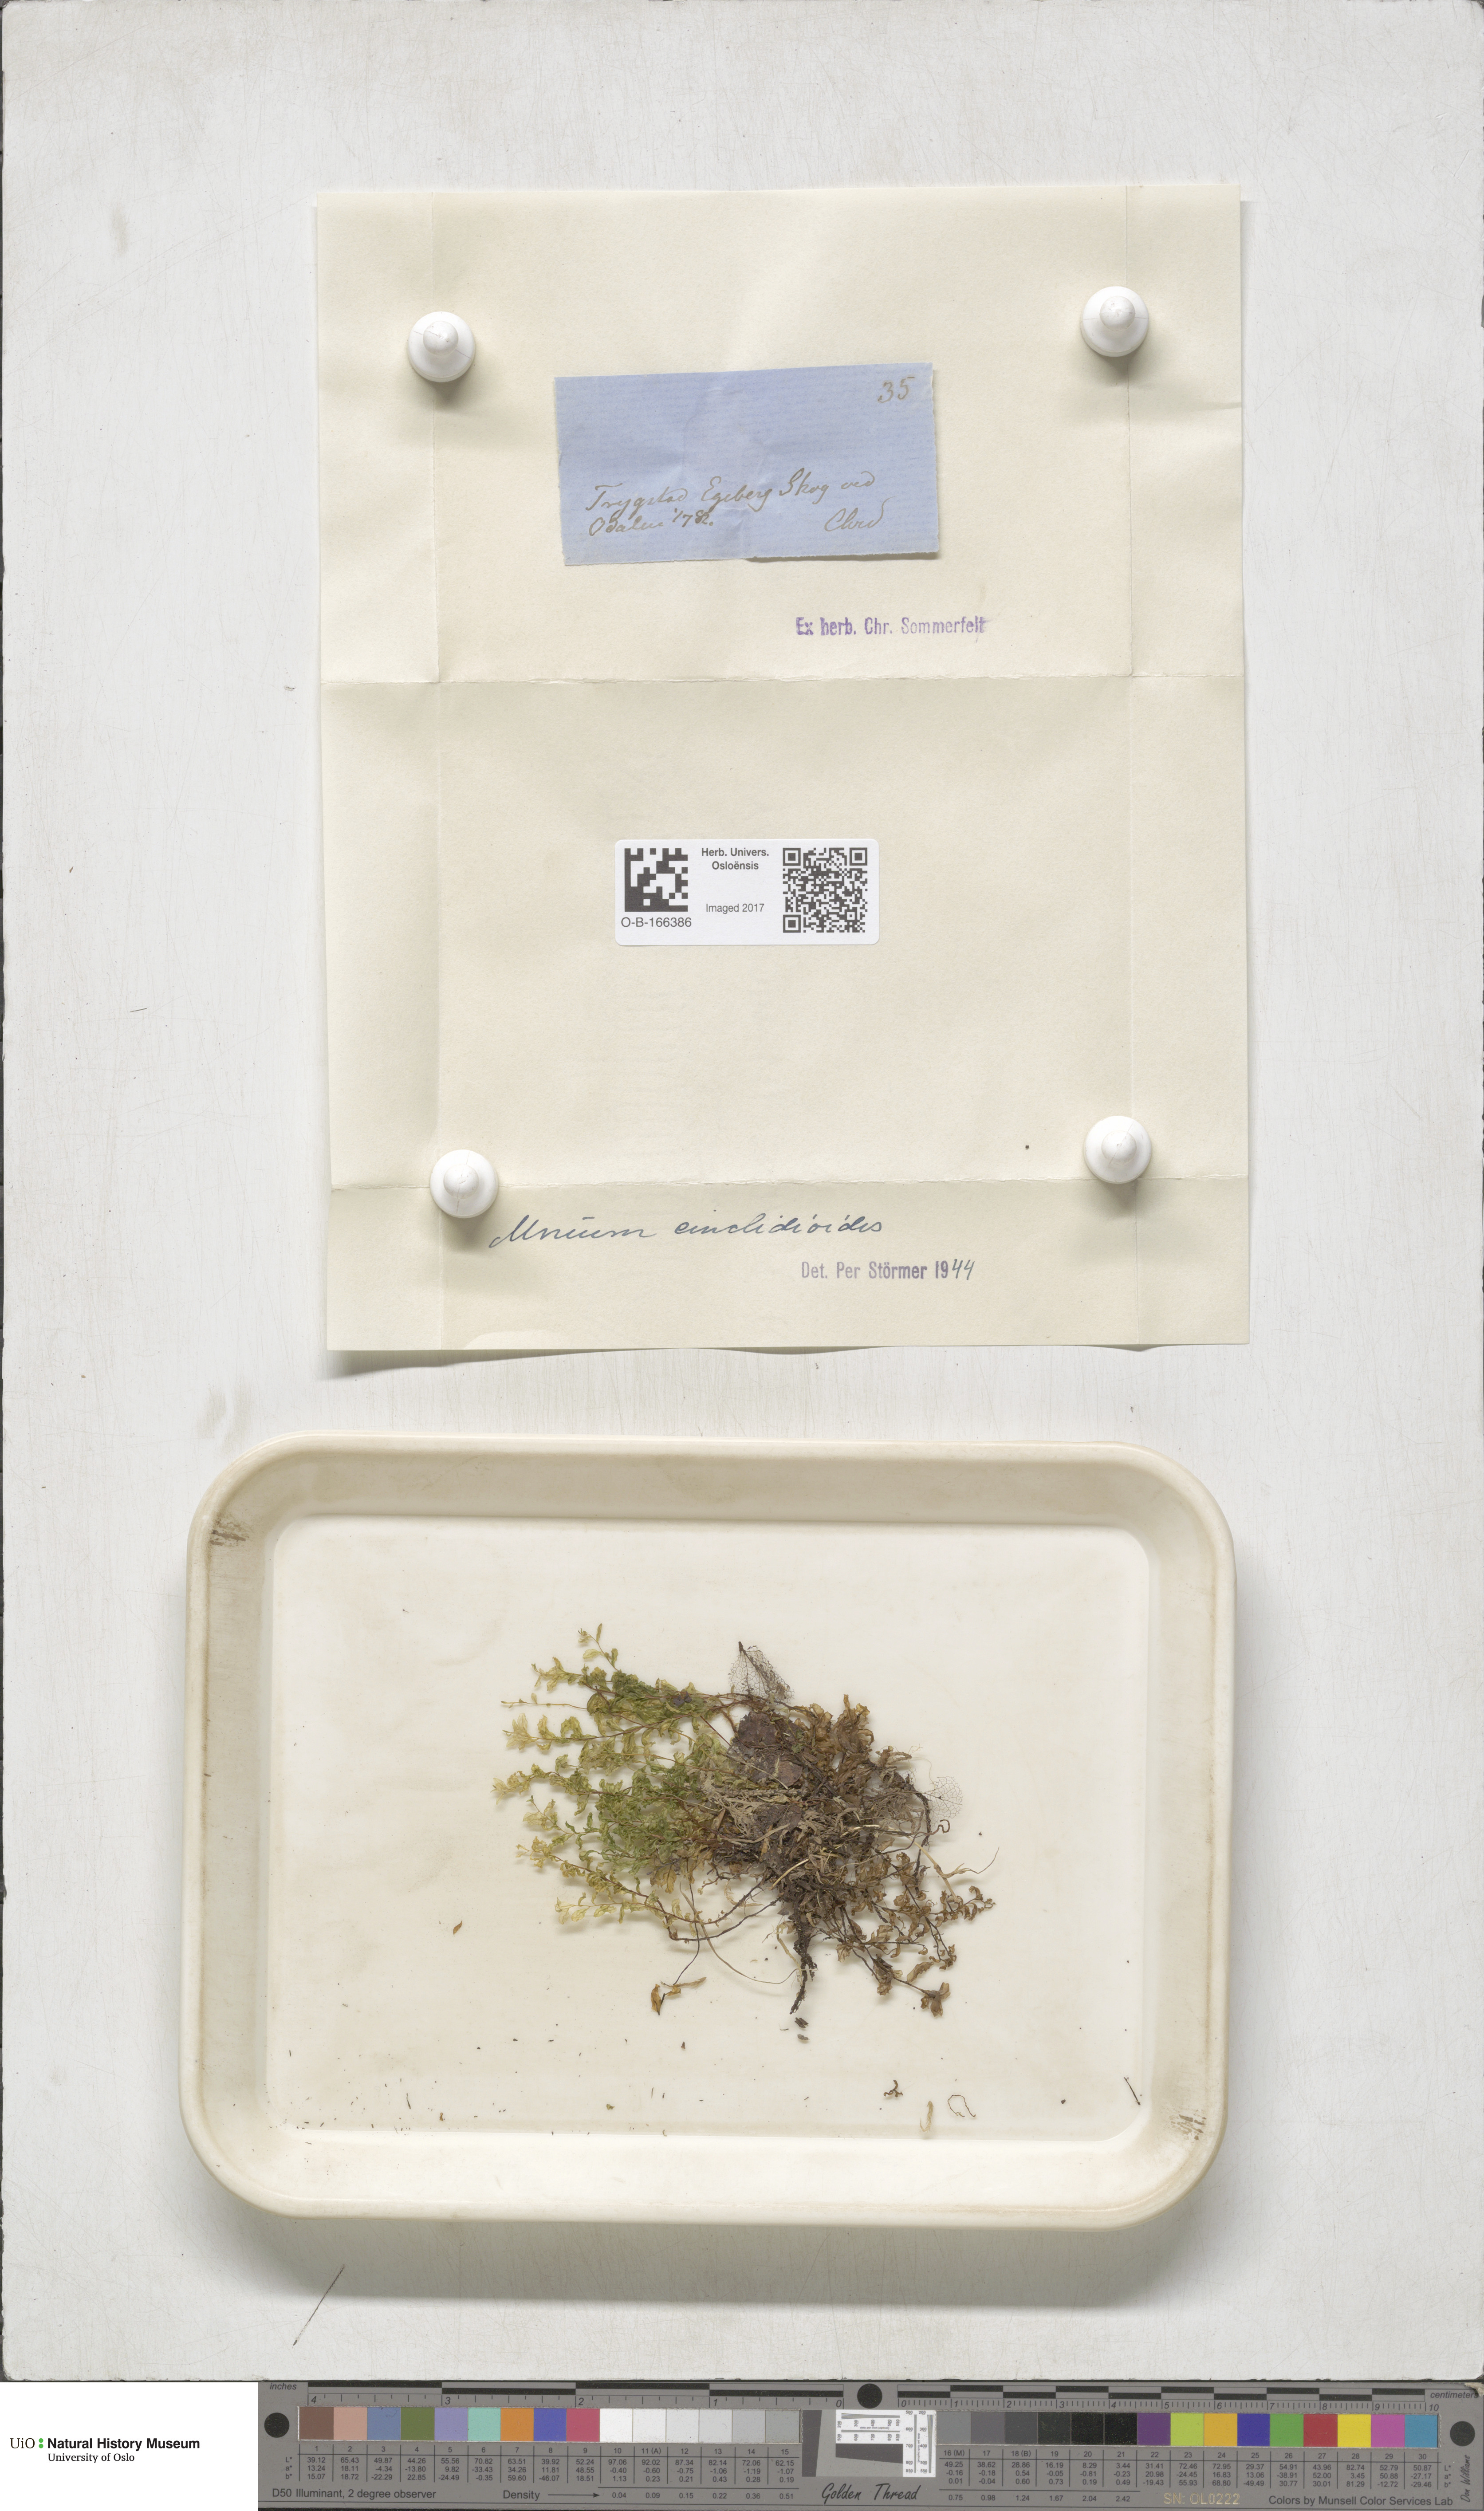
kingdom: Plantae
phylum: Bryophyta
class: Bryopsida
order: Bryales
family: Mniaceae
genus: Pseudobryum
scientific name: Pseudobryum cinclidioides
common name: River thyme moss
